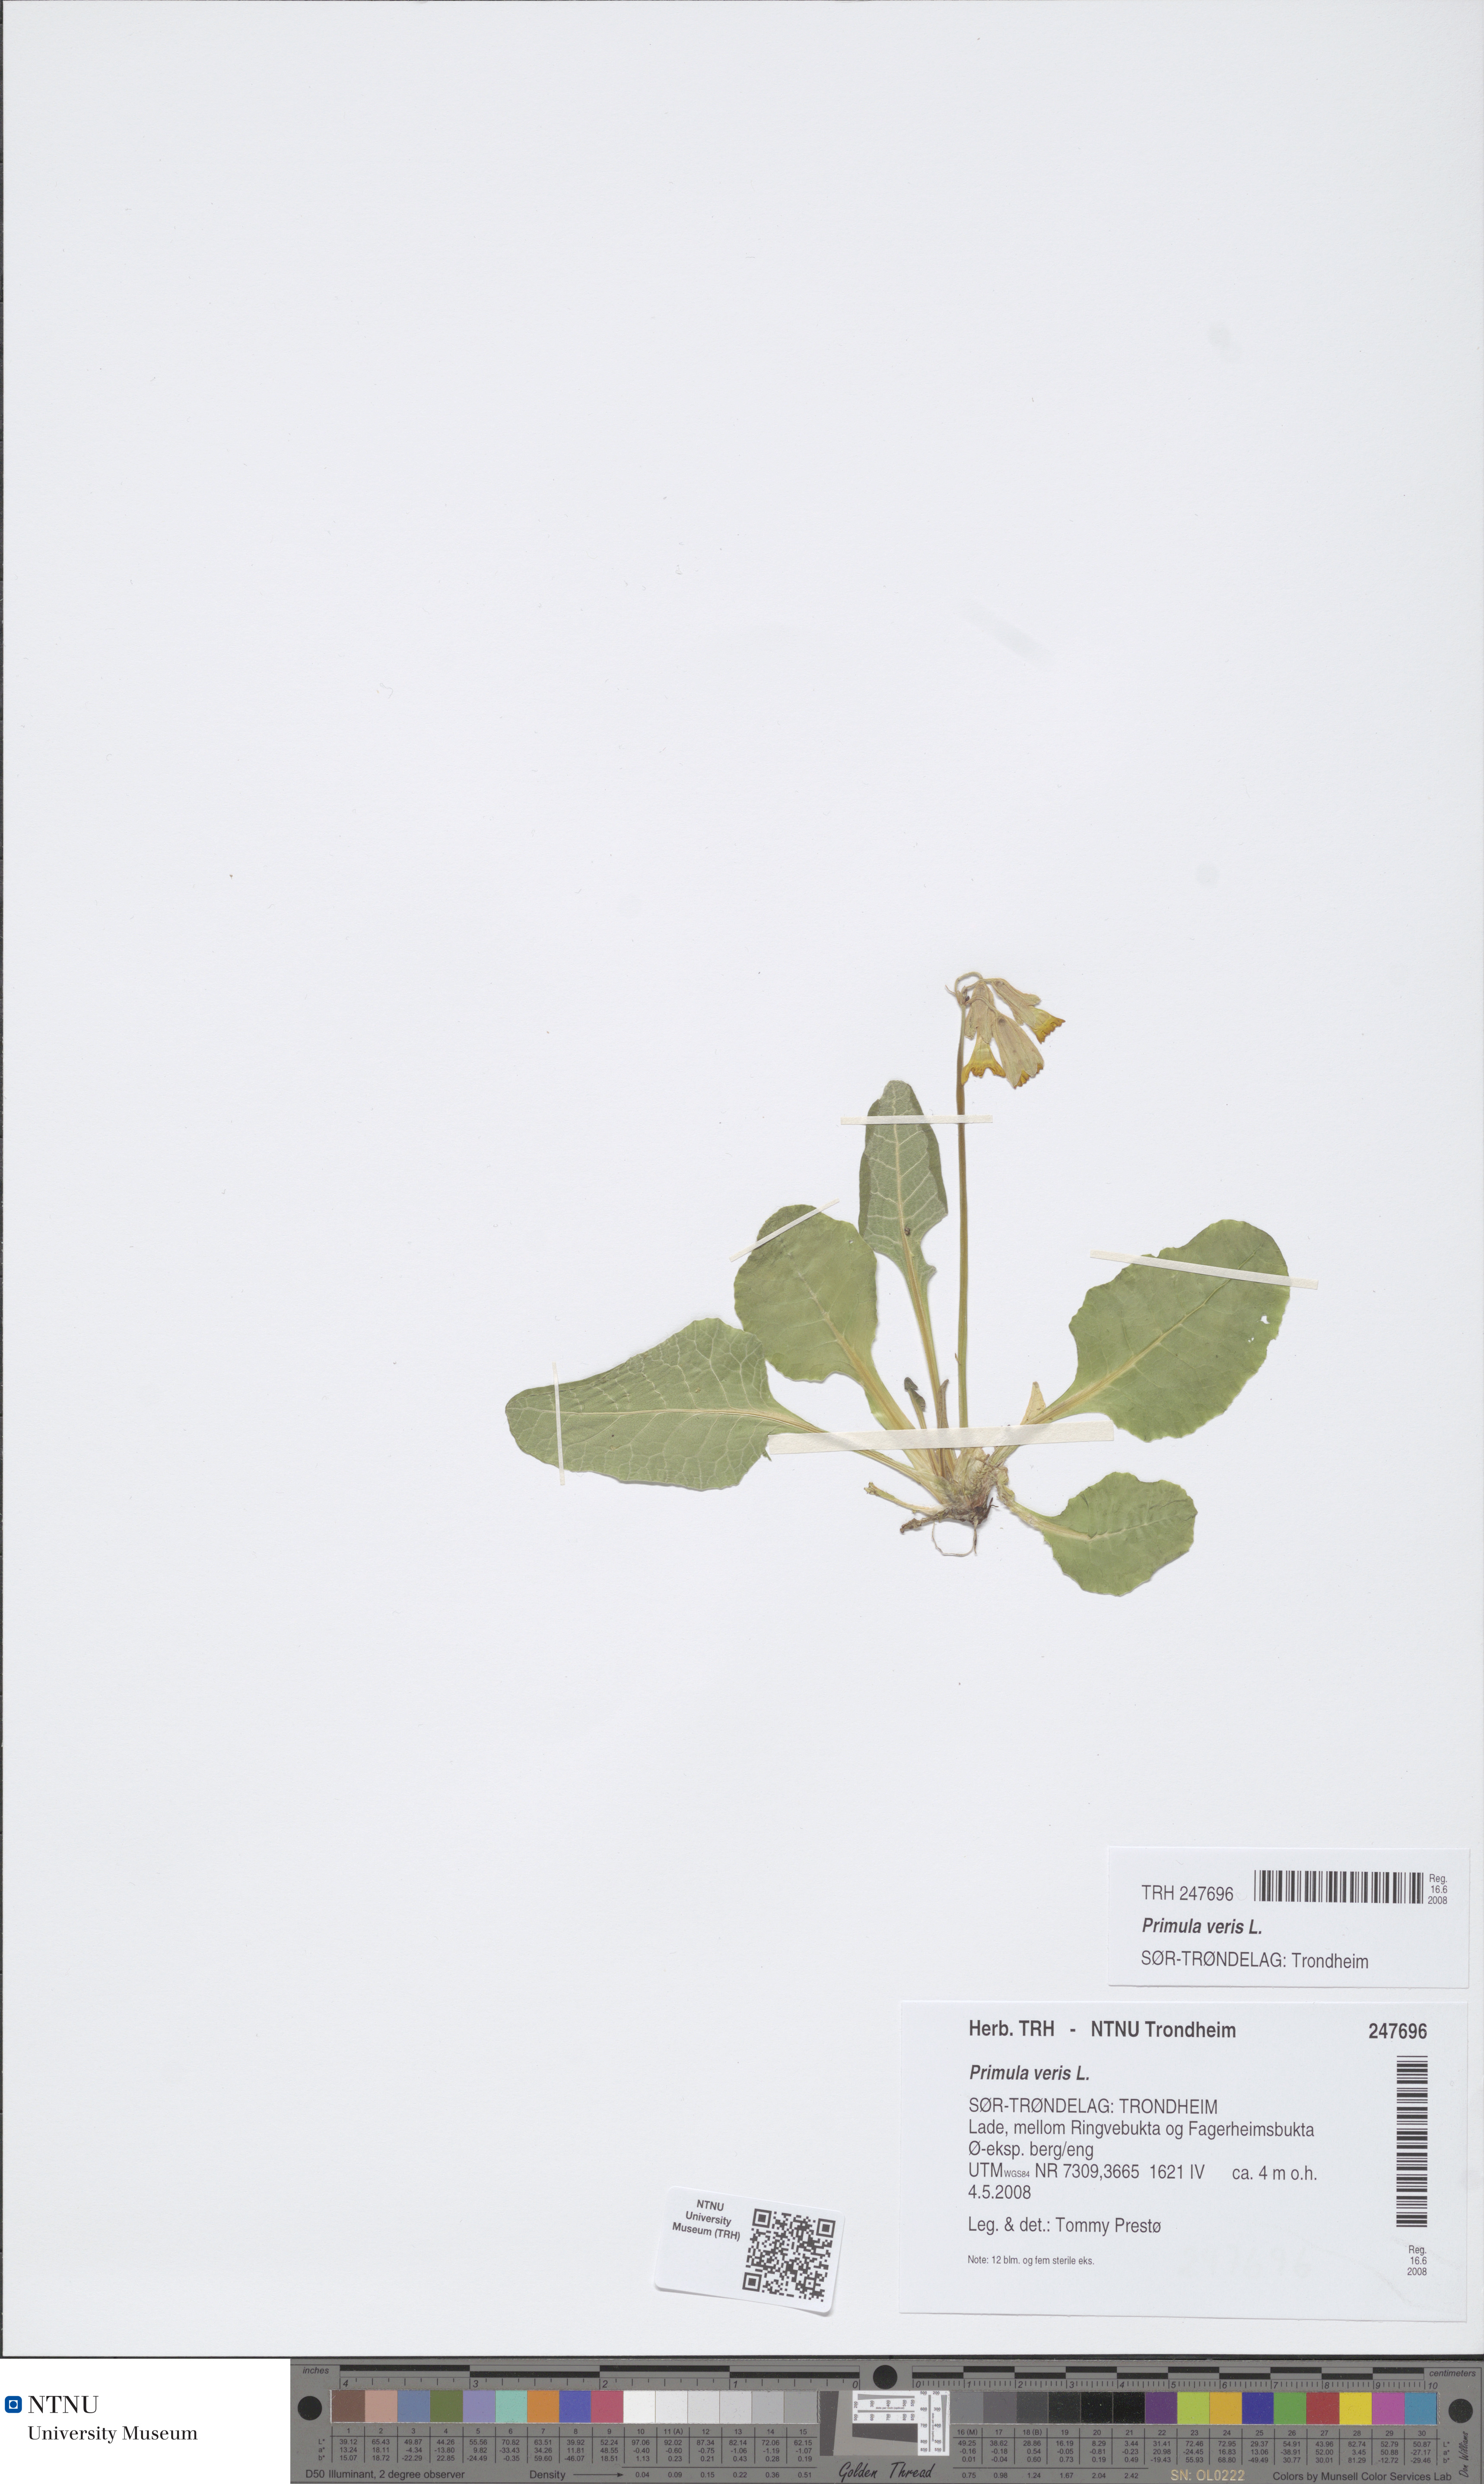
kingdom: Plantae
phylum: Tracheophyta
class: Magnoliopsida
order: Ericales
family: Primulaceae
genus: Primula
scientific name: Primula veris
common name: Cowslip
